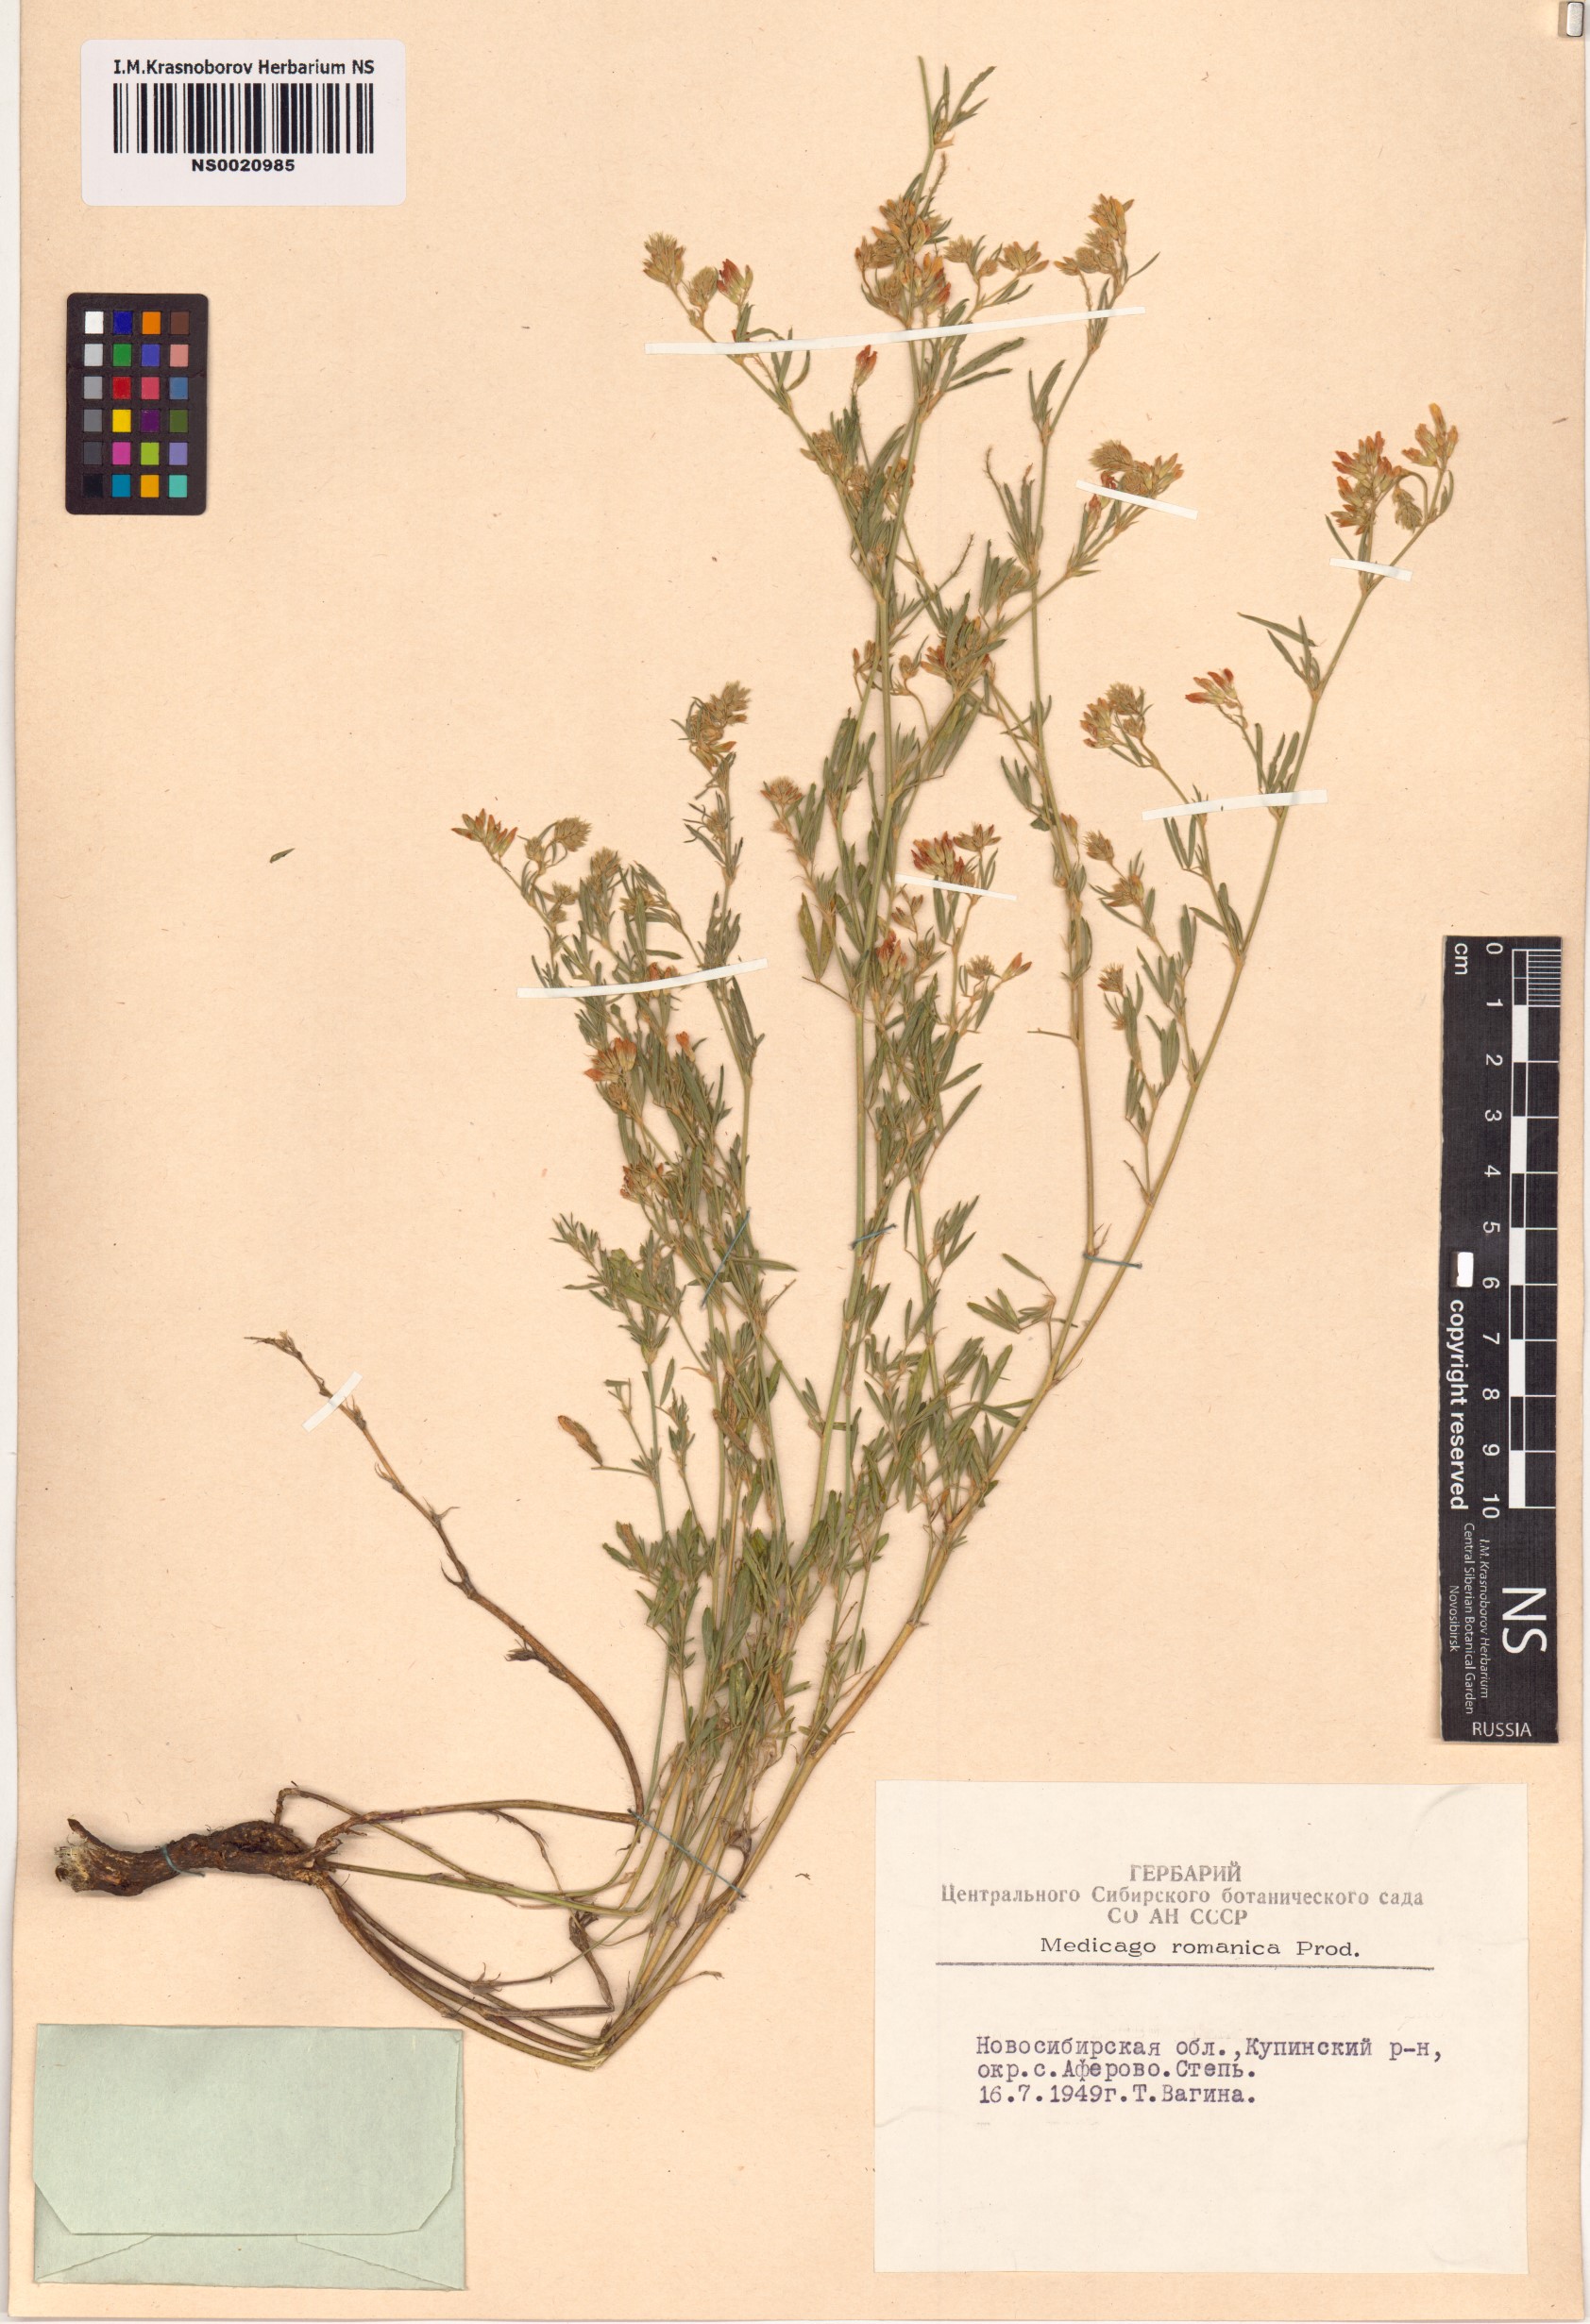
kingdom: Plantae
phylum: Tracheophyta
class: Magnoliopsida
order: Fabales
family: Fabaceae
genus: Medicago
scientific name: Medicago falcata
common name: Sickle medick
